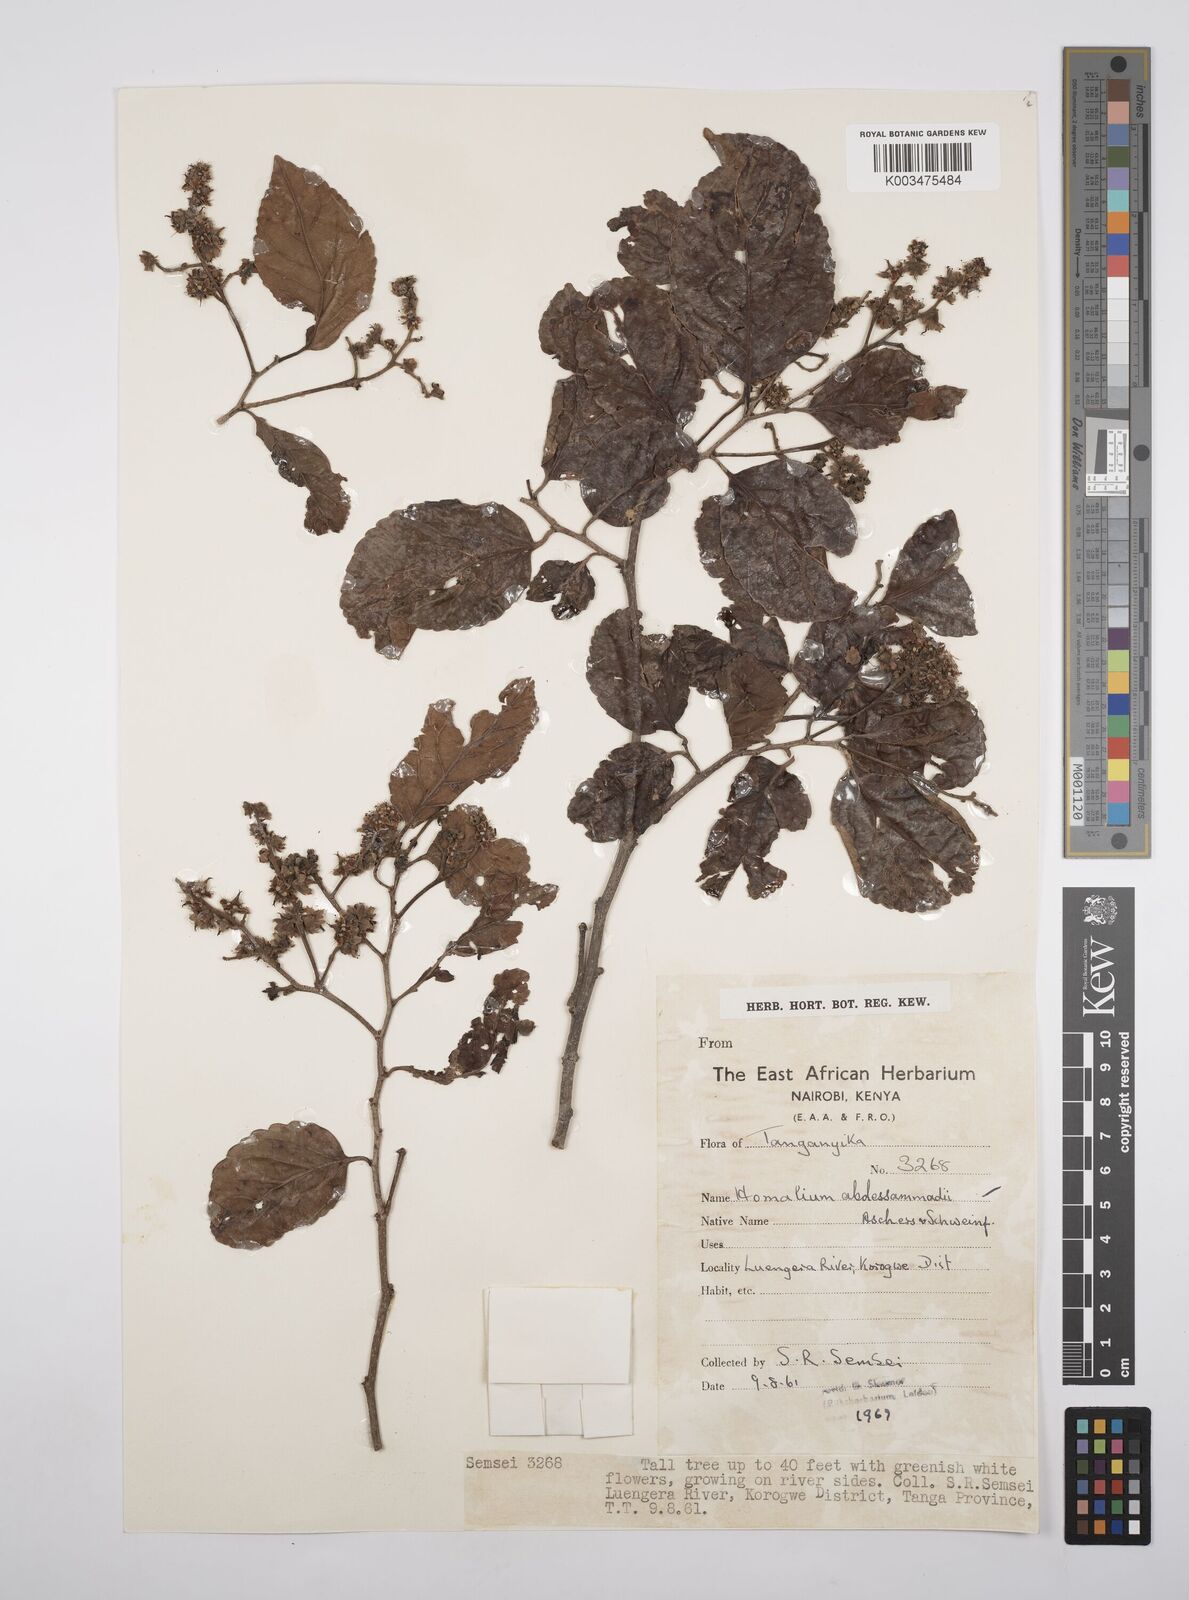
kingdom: Plantae
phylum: Tracheophyta
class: Magnoliopsida
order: Malpighiales
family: Salicaceae
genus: Homalium
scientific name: Homalium abdessammadii
